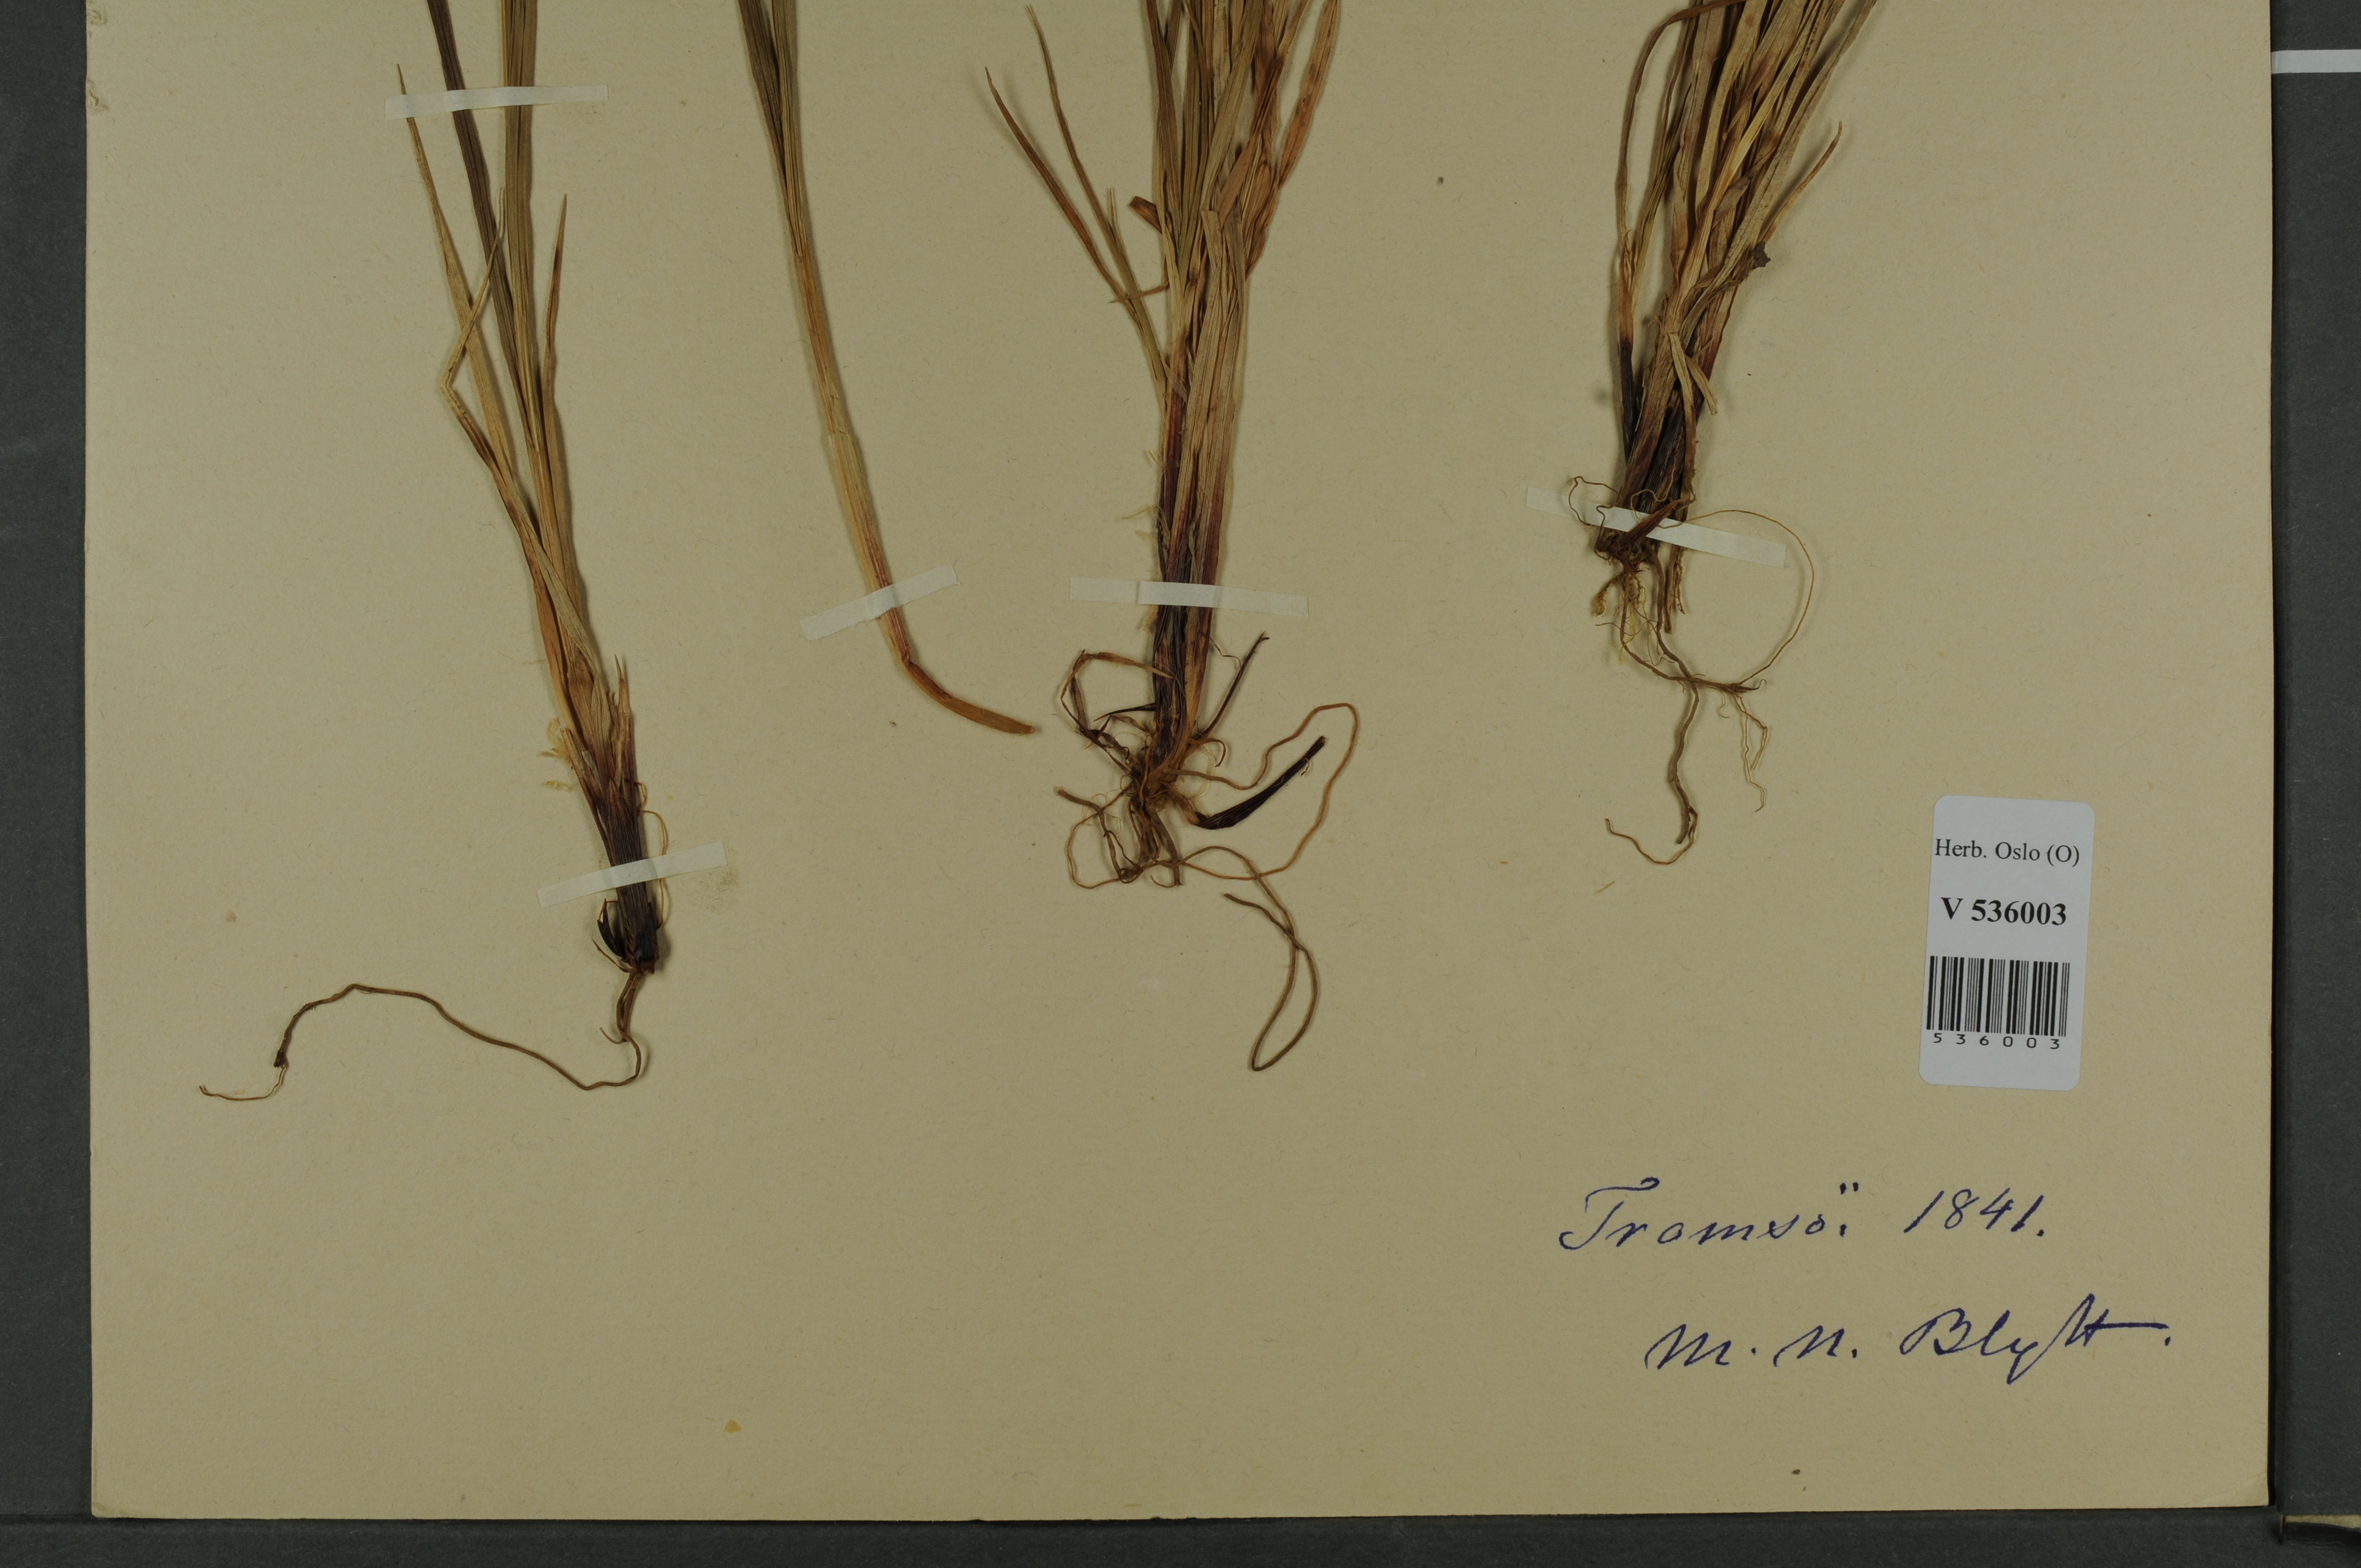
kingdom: Plantae
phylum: Tracheophyta
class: Liliopsida
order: Poales
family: Cyperaceae
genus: Carex
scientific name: Carex
